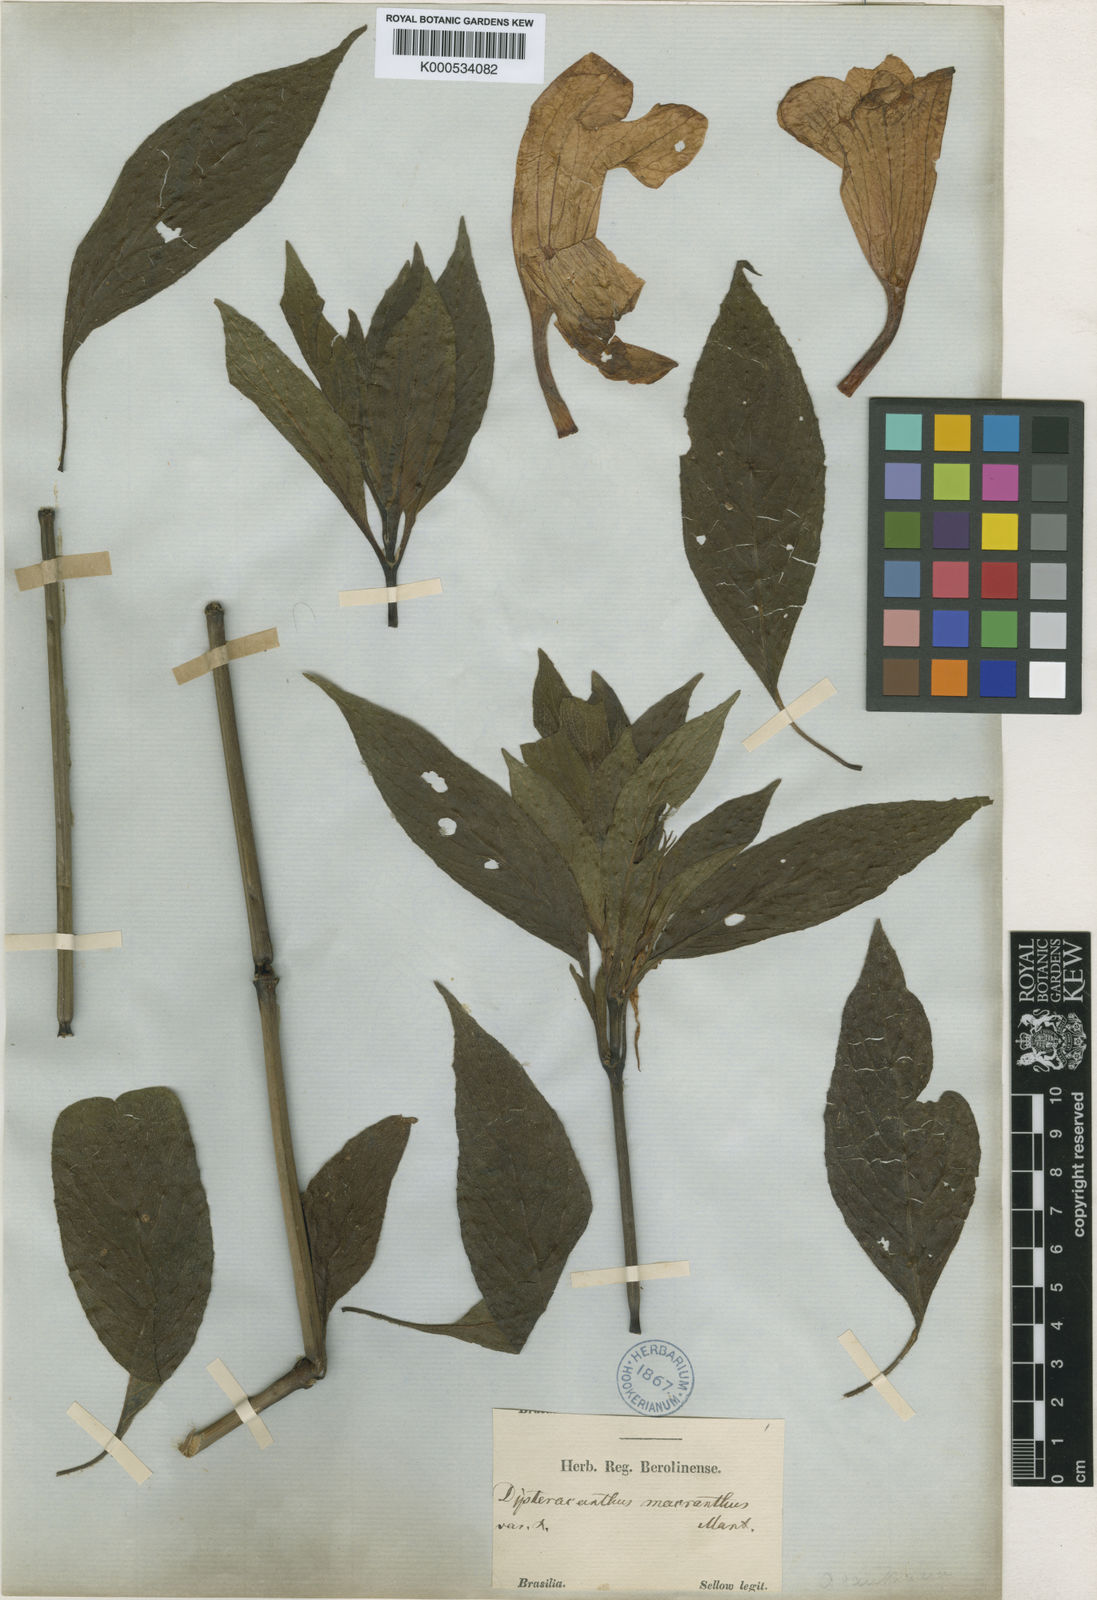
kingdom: Plantae
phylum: Tracheophyta
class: Magnoliopsida
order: Lamiales
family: Acanthaceae
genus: Ruellia
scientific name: Ruellia
